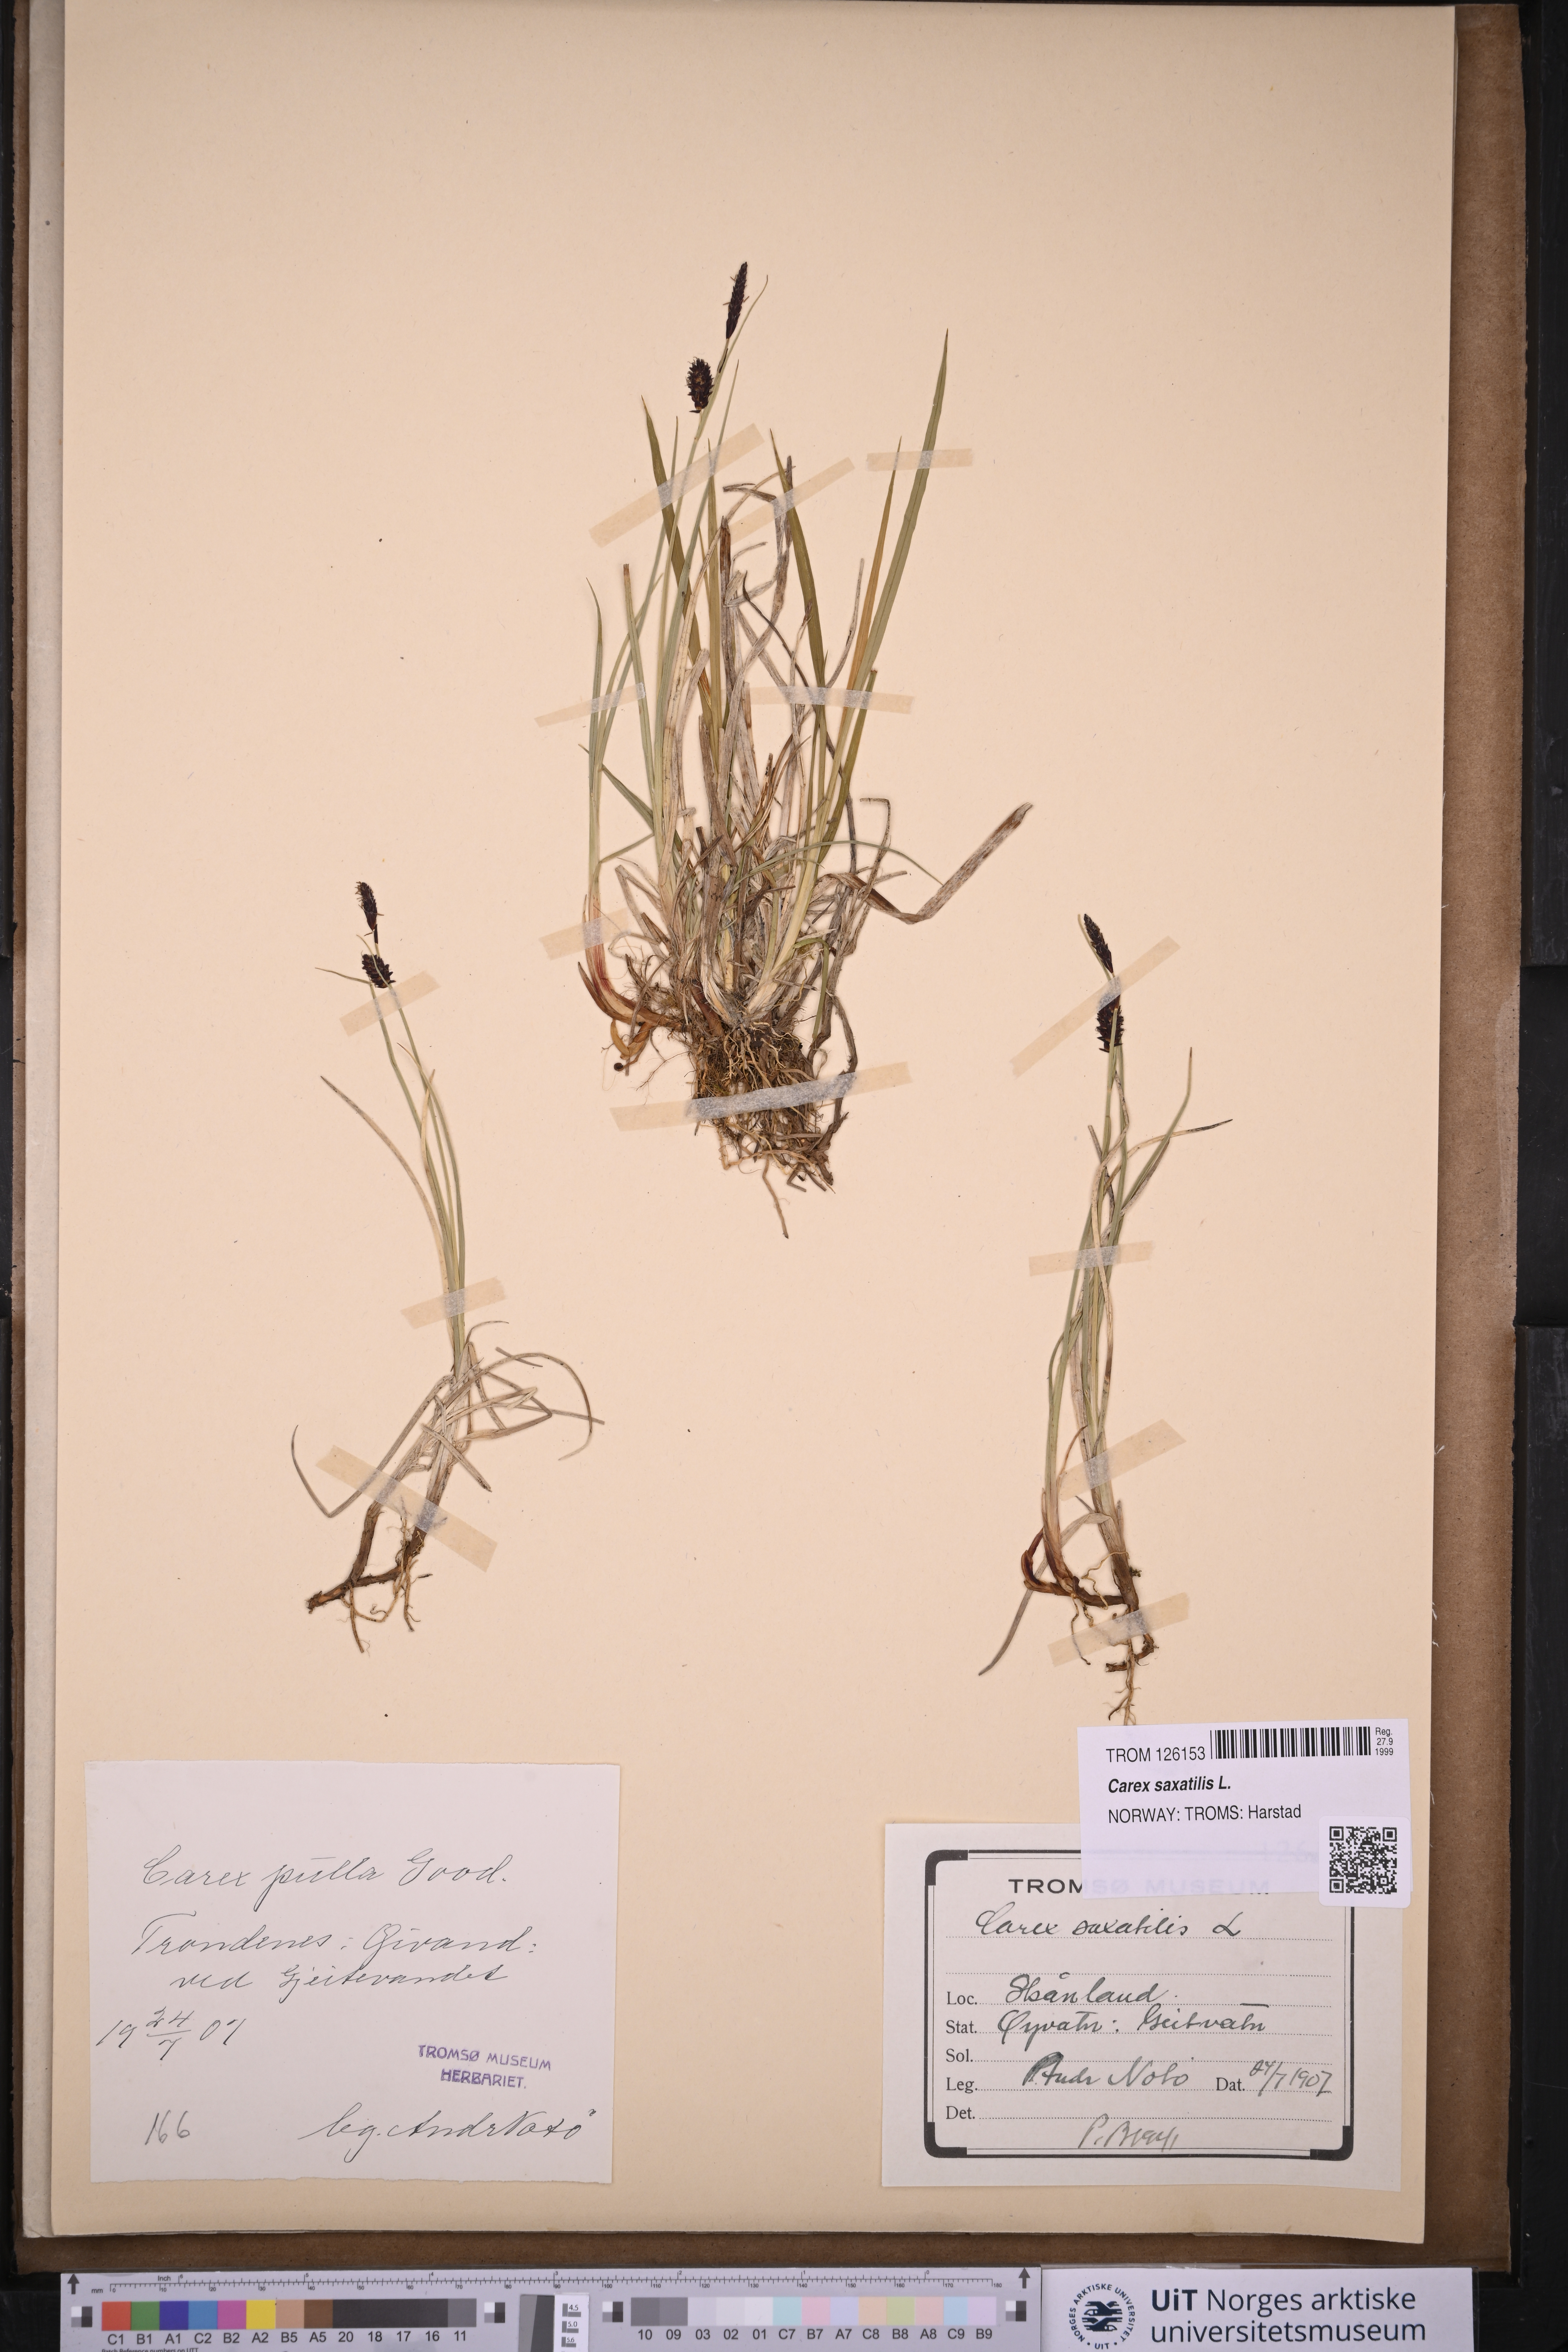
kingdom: Plantae
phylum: Tracheophyta
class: Liliopsida
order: Poales
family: Cyperaceae
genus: Carex
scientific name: Carex saxatilis
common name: Russet sedge
